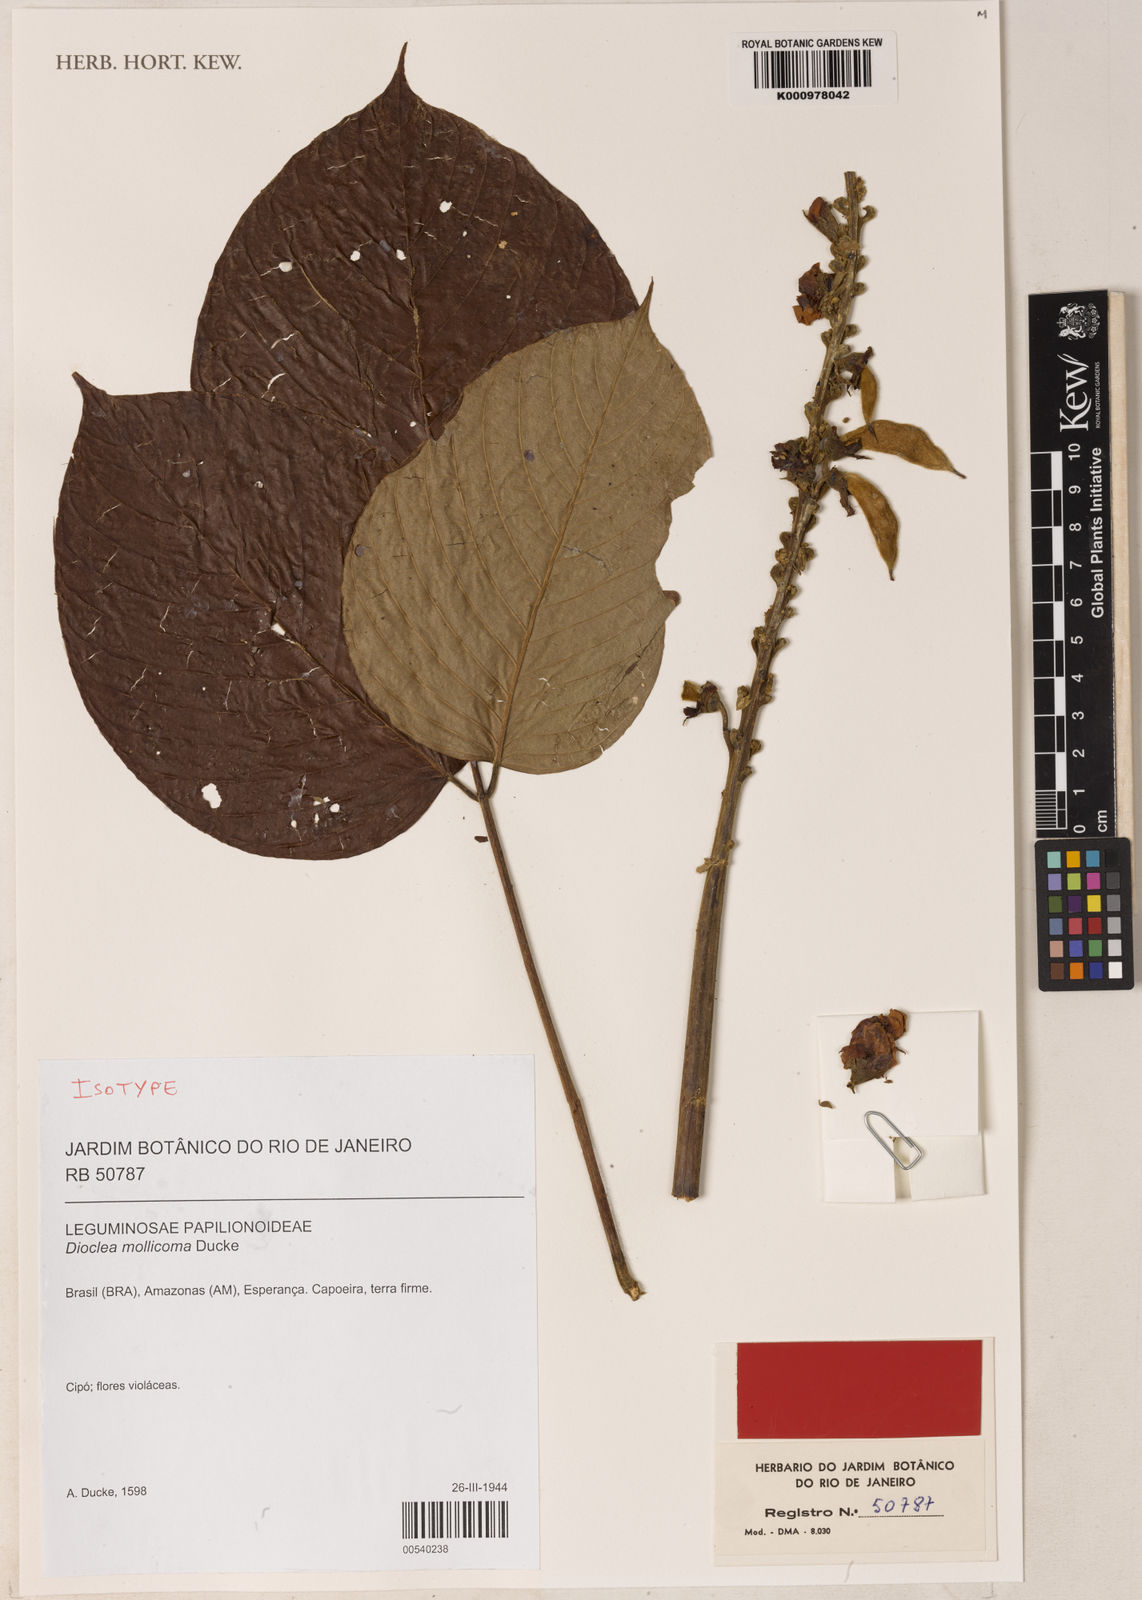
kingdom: Plantae
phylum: Tracheophyta
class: Magnoliopsida
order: Fabales
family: Fabaceae
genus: Macropsychanthus
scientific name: Macropsychanthus mollicomus
